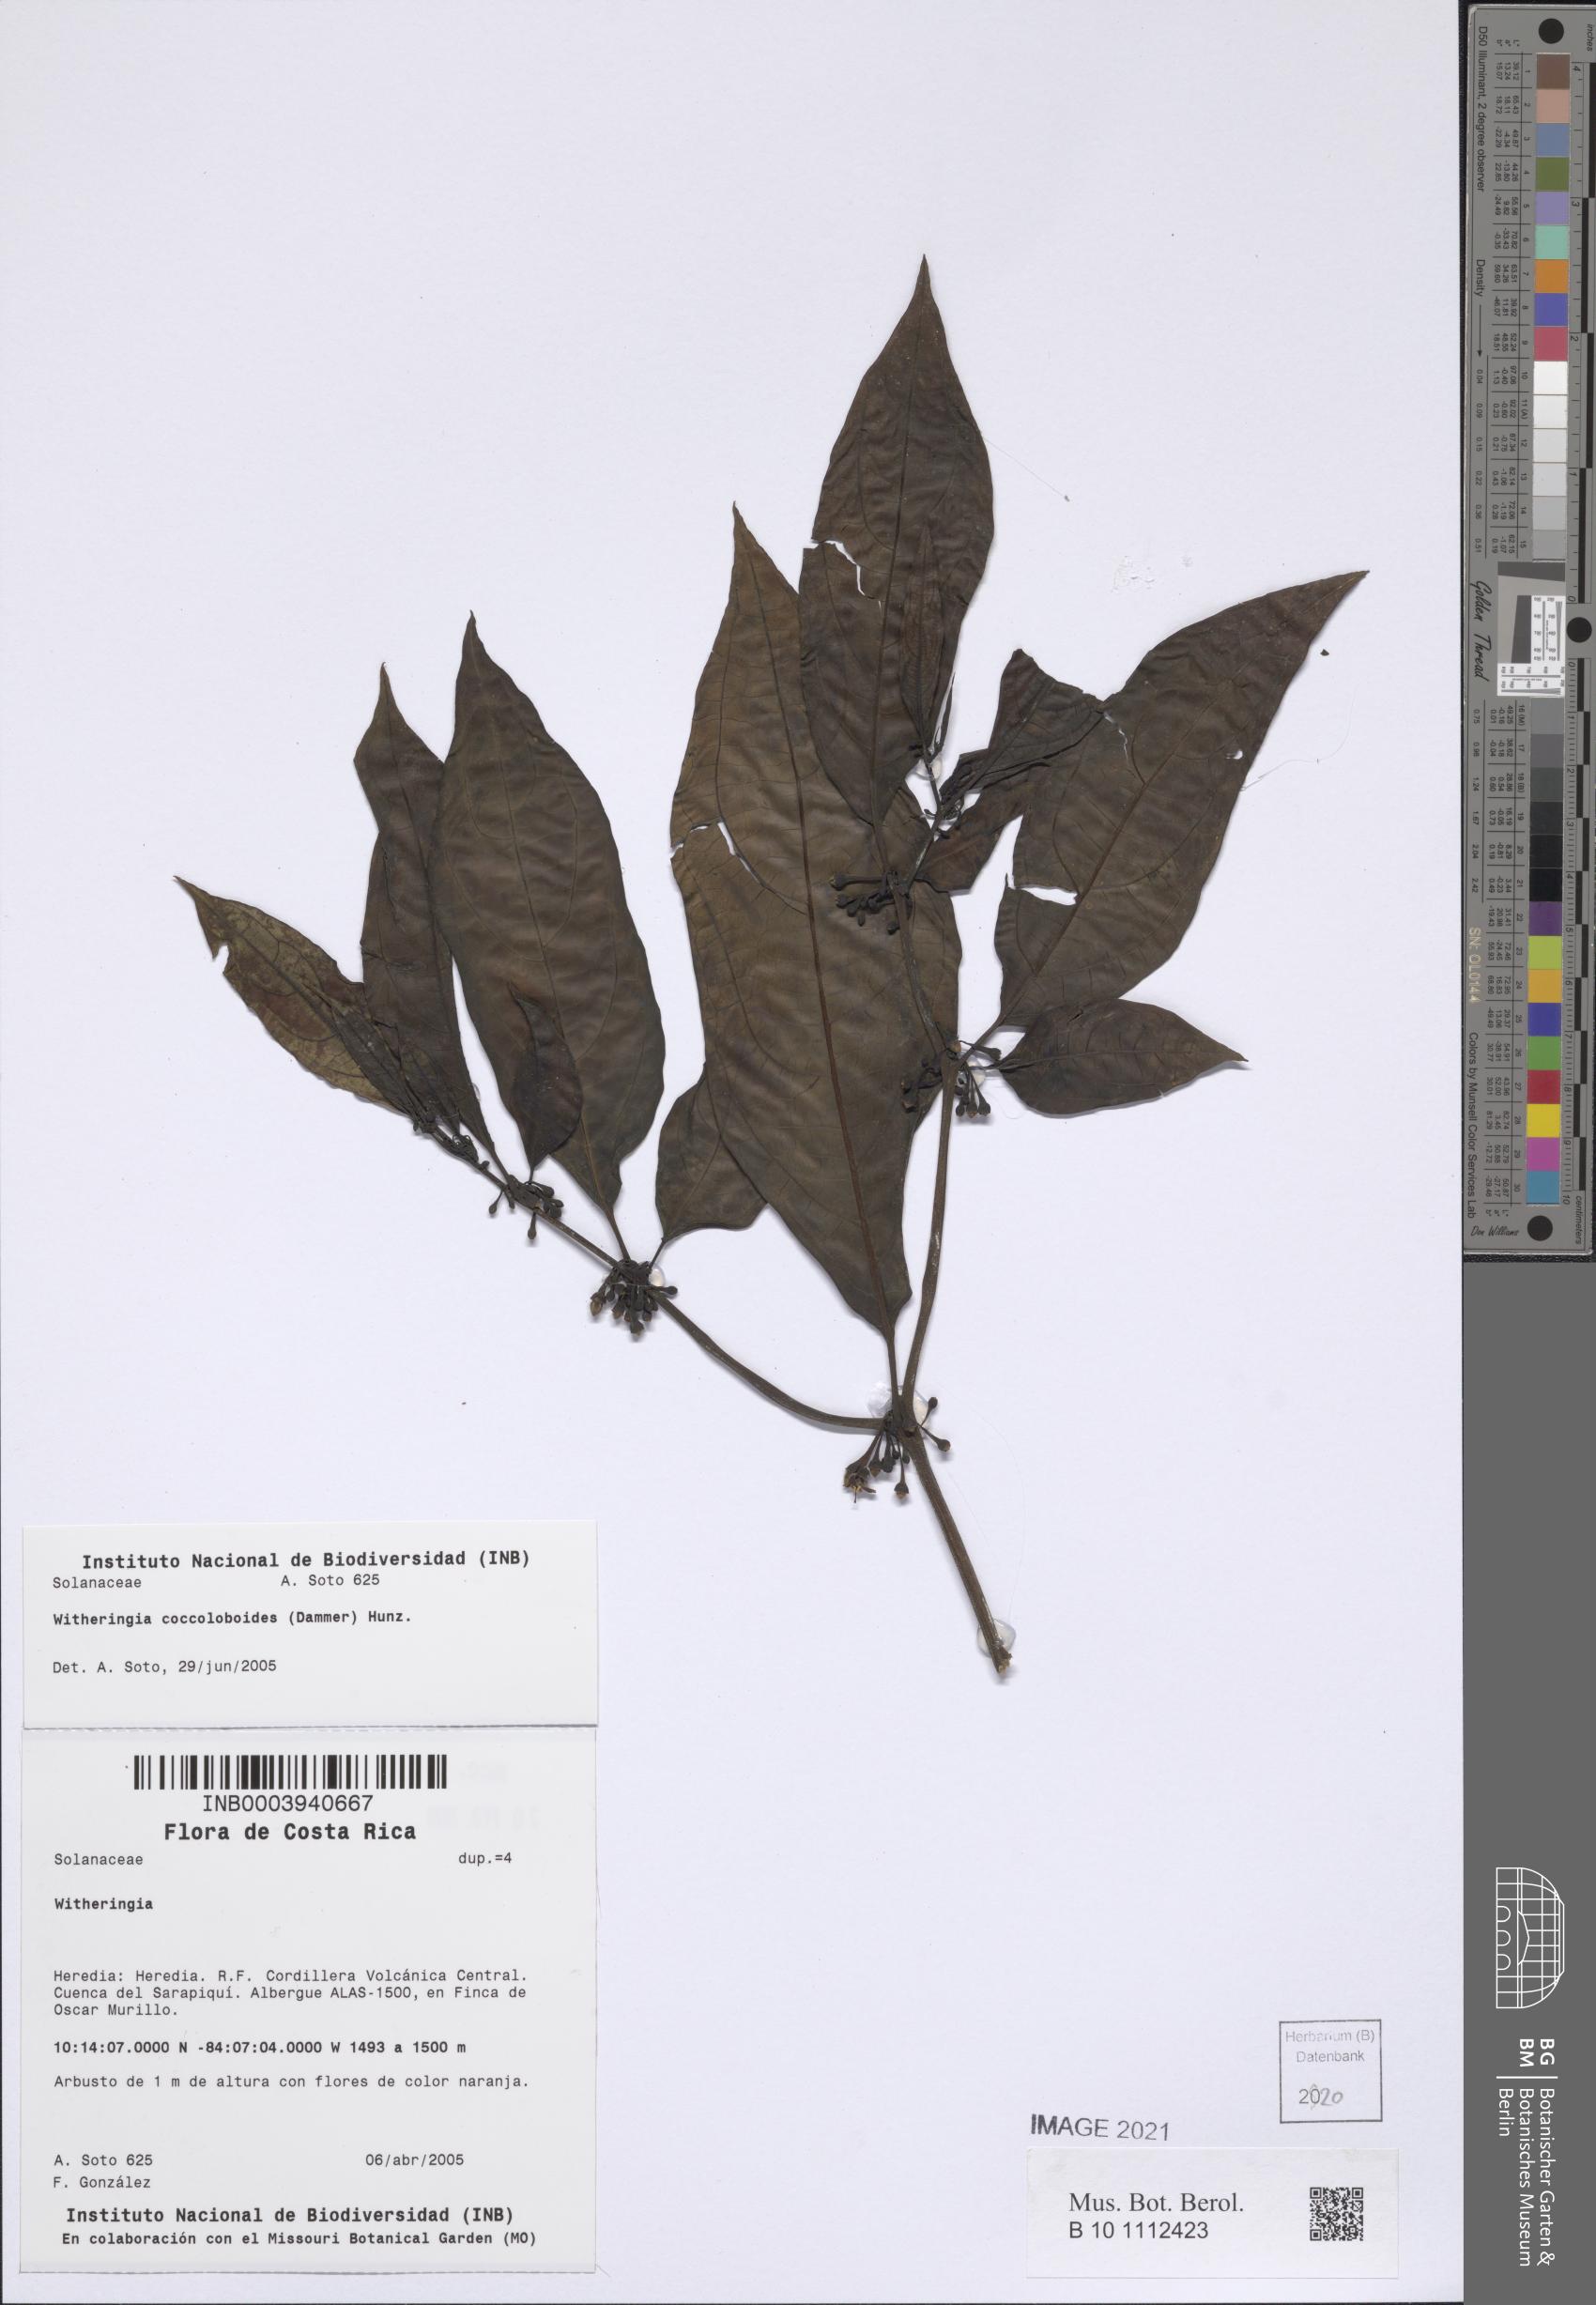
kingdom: Plantae
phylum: Tracheophyta
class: Magnoliopsida
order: Solanales
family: Solanaceae
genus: Witheringia
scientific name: Witheringia coccoloboides
